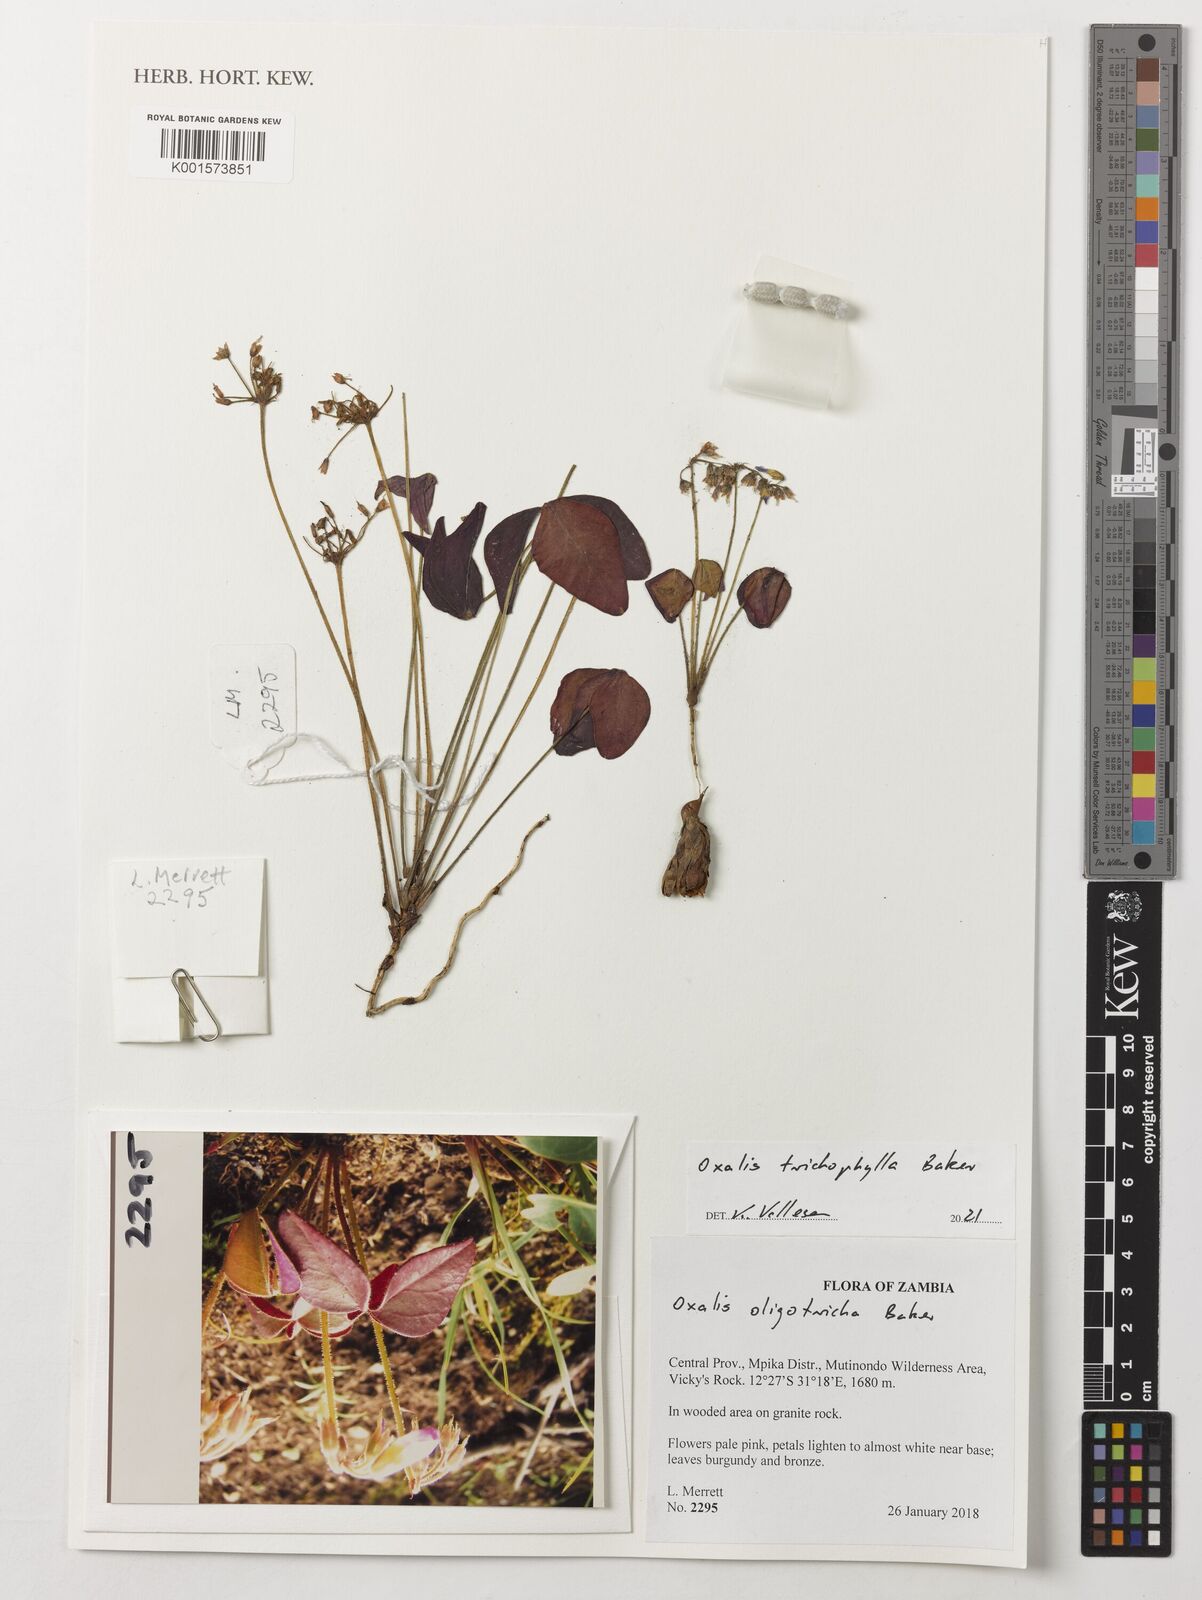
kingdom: Plantae
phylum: Tracheophyta
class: Magnoliopsida
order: Oxalidales
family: Oxalidaceae
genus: Oxalis
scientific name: Oxalis trichophylla
